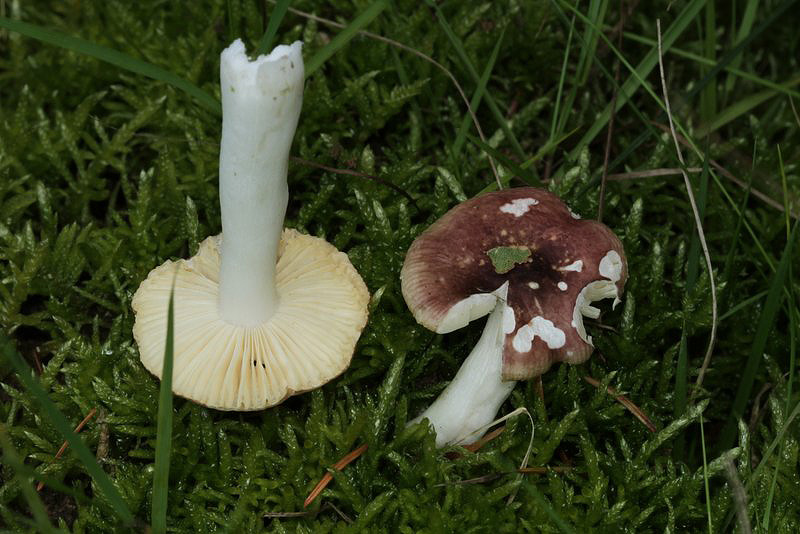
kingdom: Fungi
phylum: Basidiomycota
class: Agaricomycetes
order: Russulales
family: Russulaceae
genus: Russula
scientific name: Russula nauseosa
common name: spinkel skørhat
